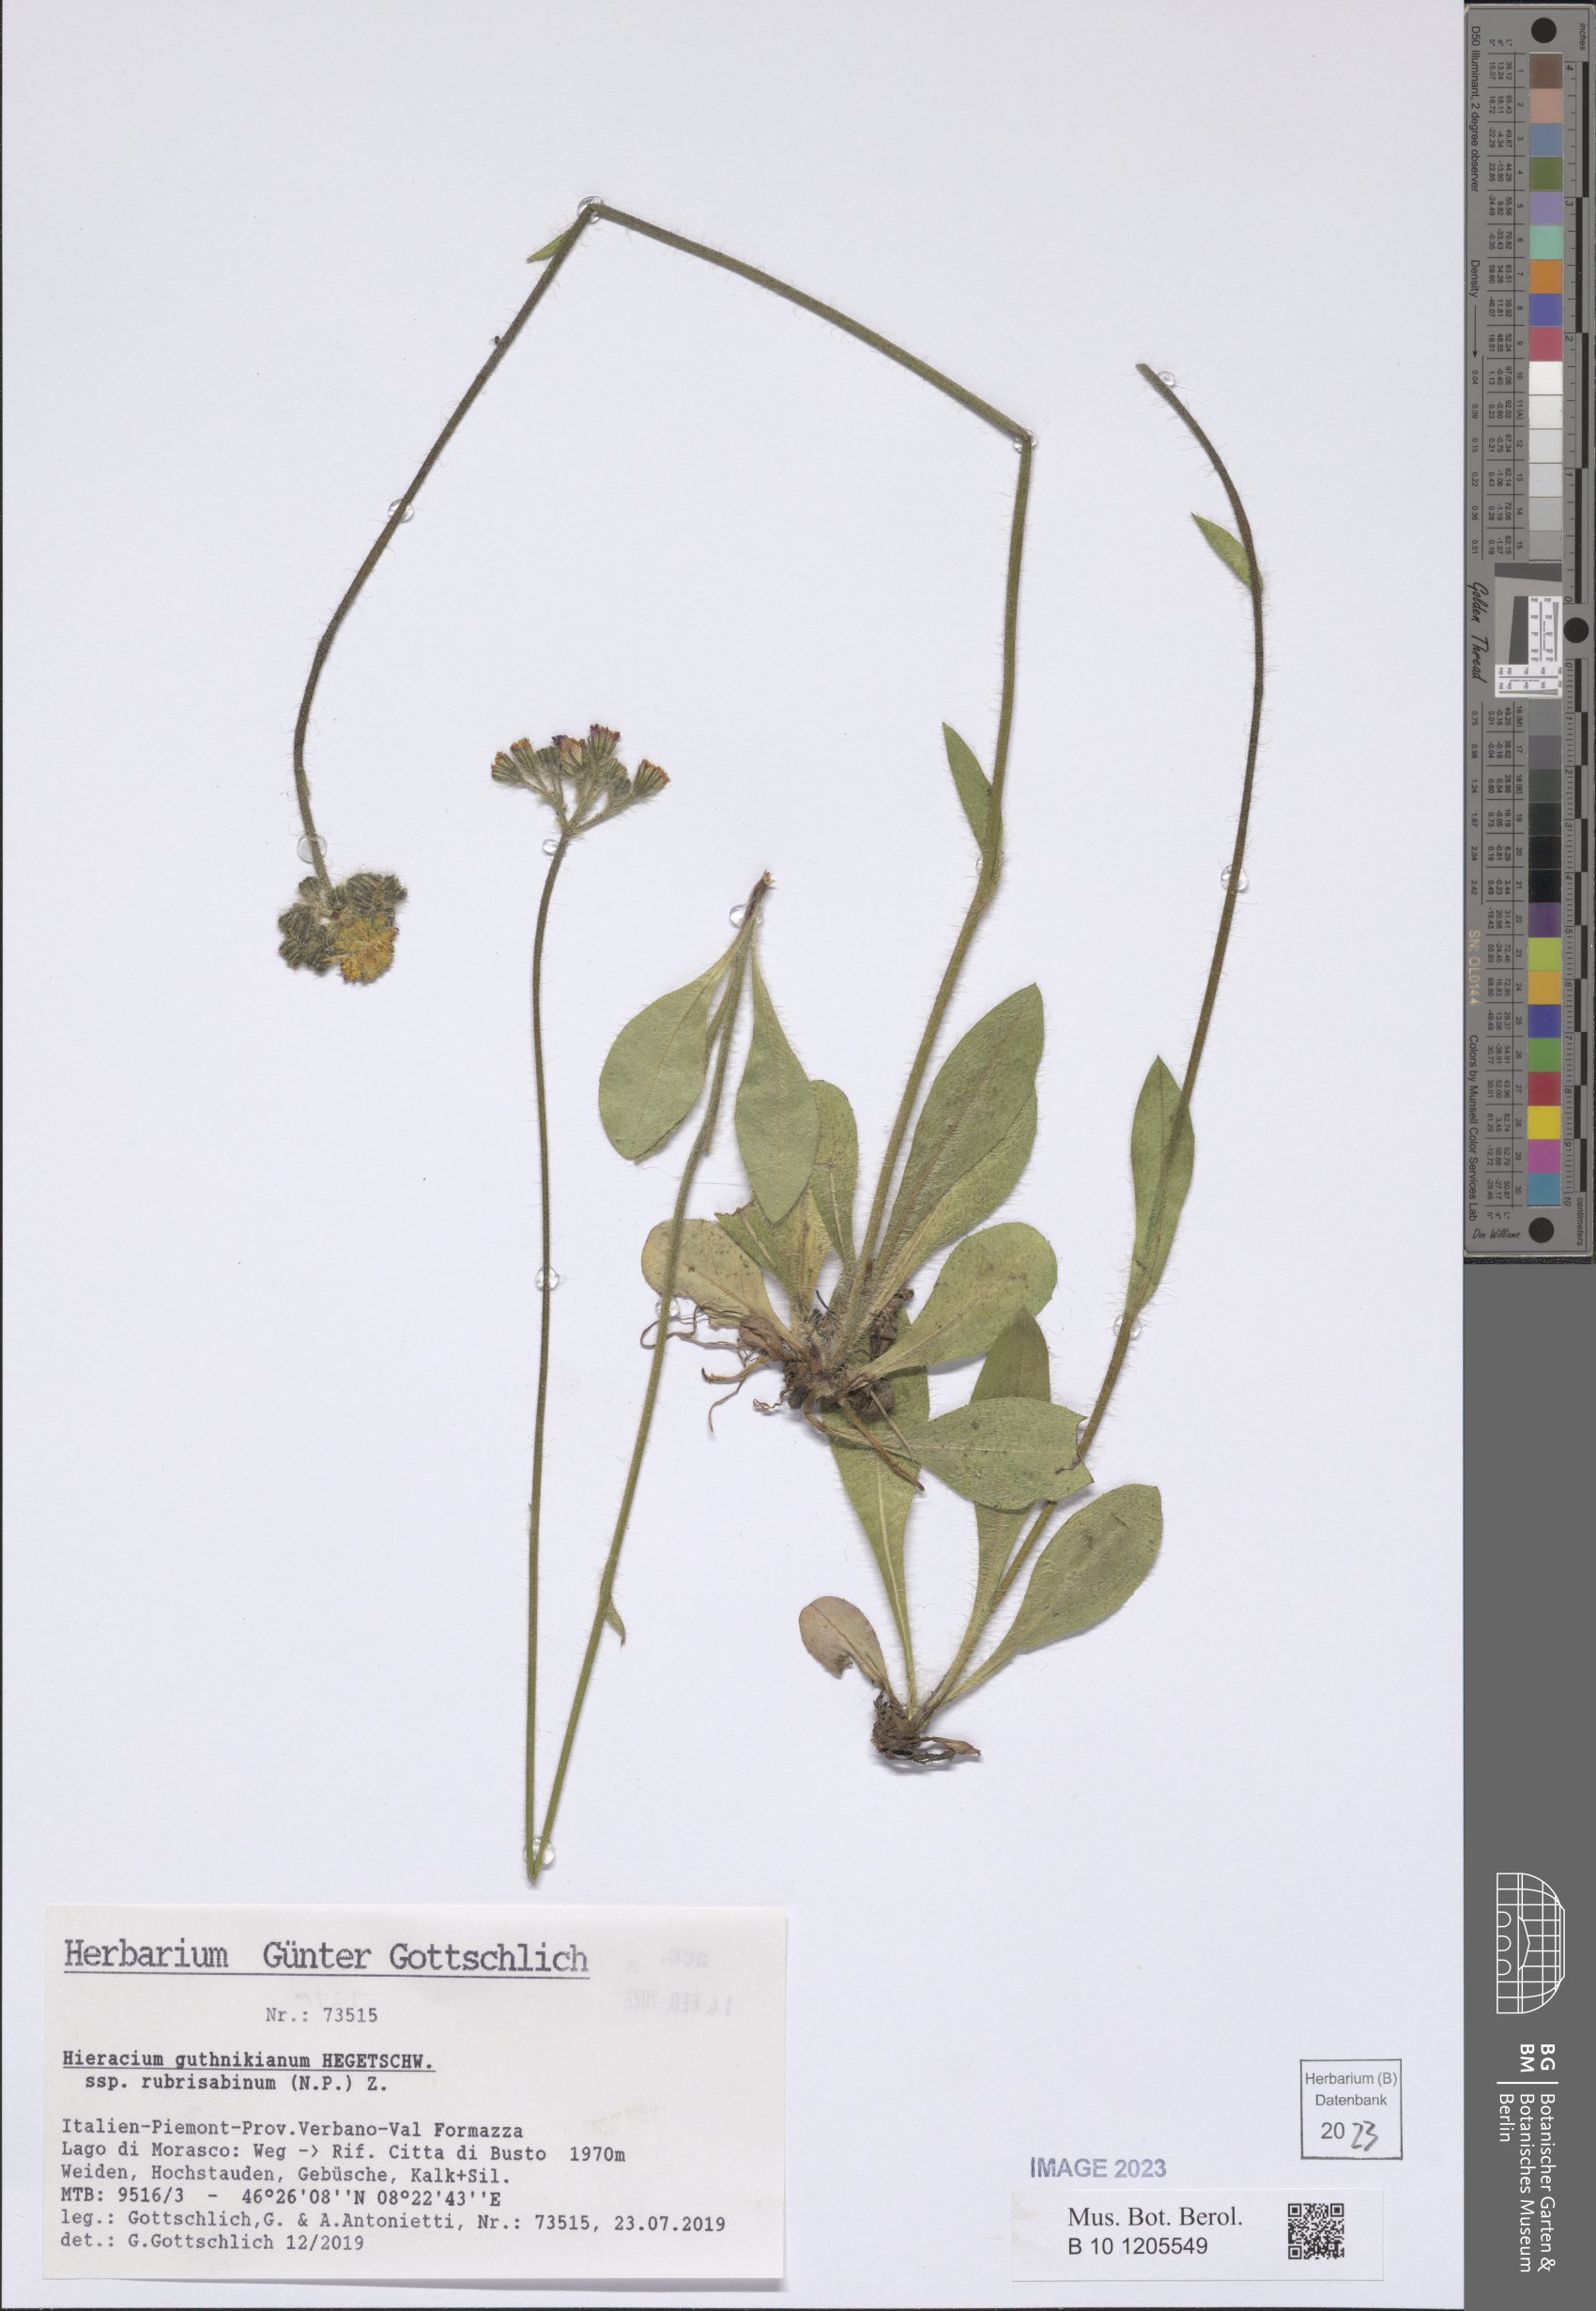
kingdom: Plantae
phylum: Tracheophyta
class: Magnoliopsida
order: Asterales
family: Asteraceae
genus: Pilosella
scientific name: Pilosella guthnikiana
